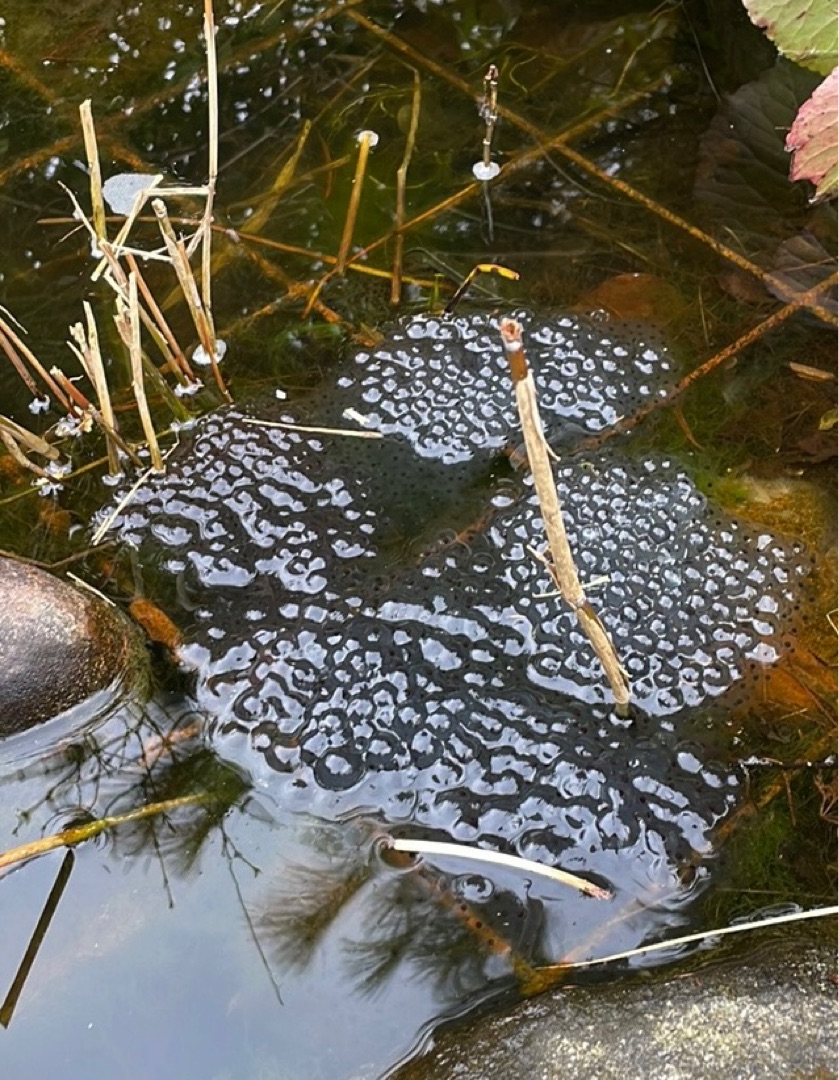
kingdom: Animalia
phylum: Chordata
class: Amphibia
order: Anura
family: Ranidae
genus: Rana
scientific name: Rana temporaria
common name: Butsnudet frø
